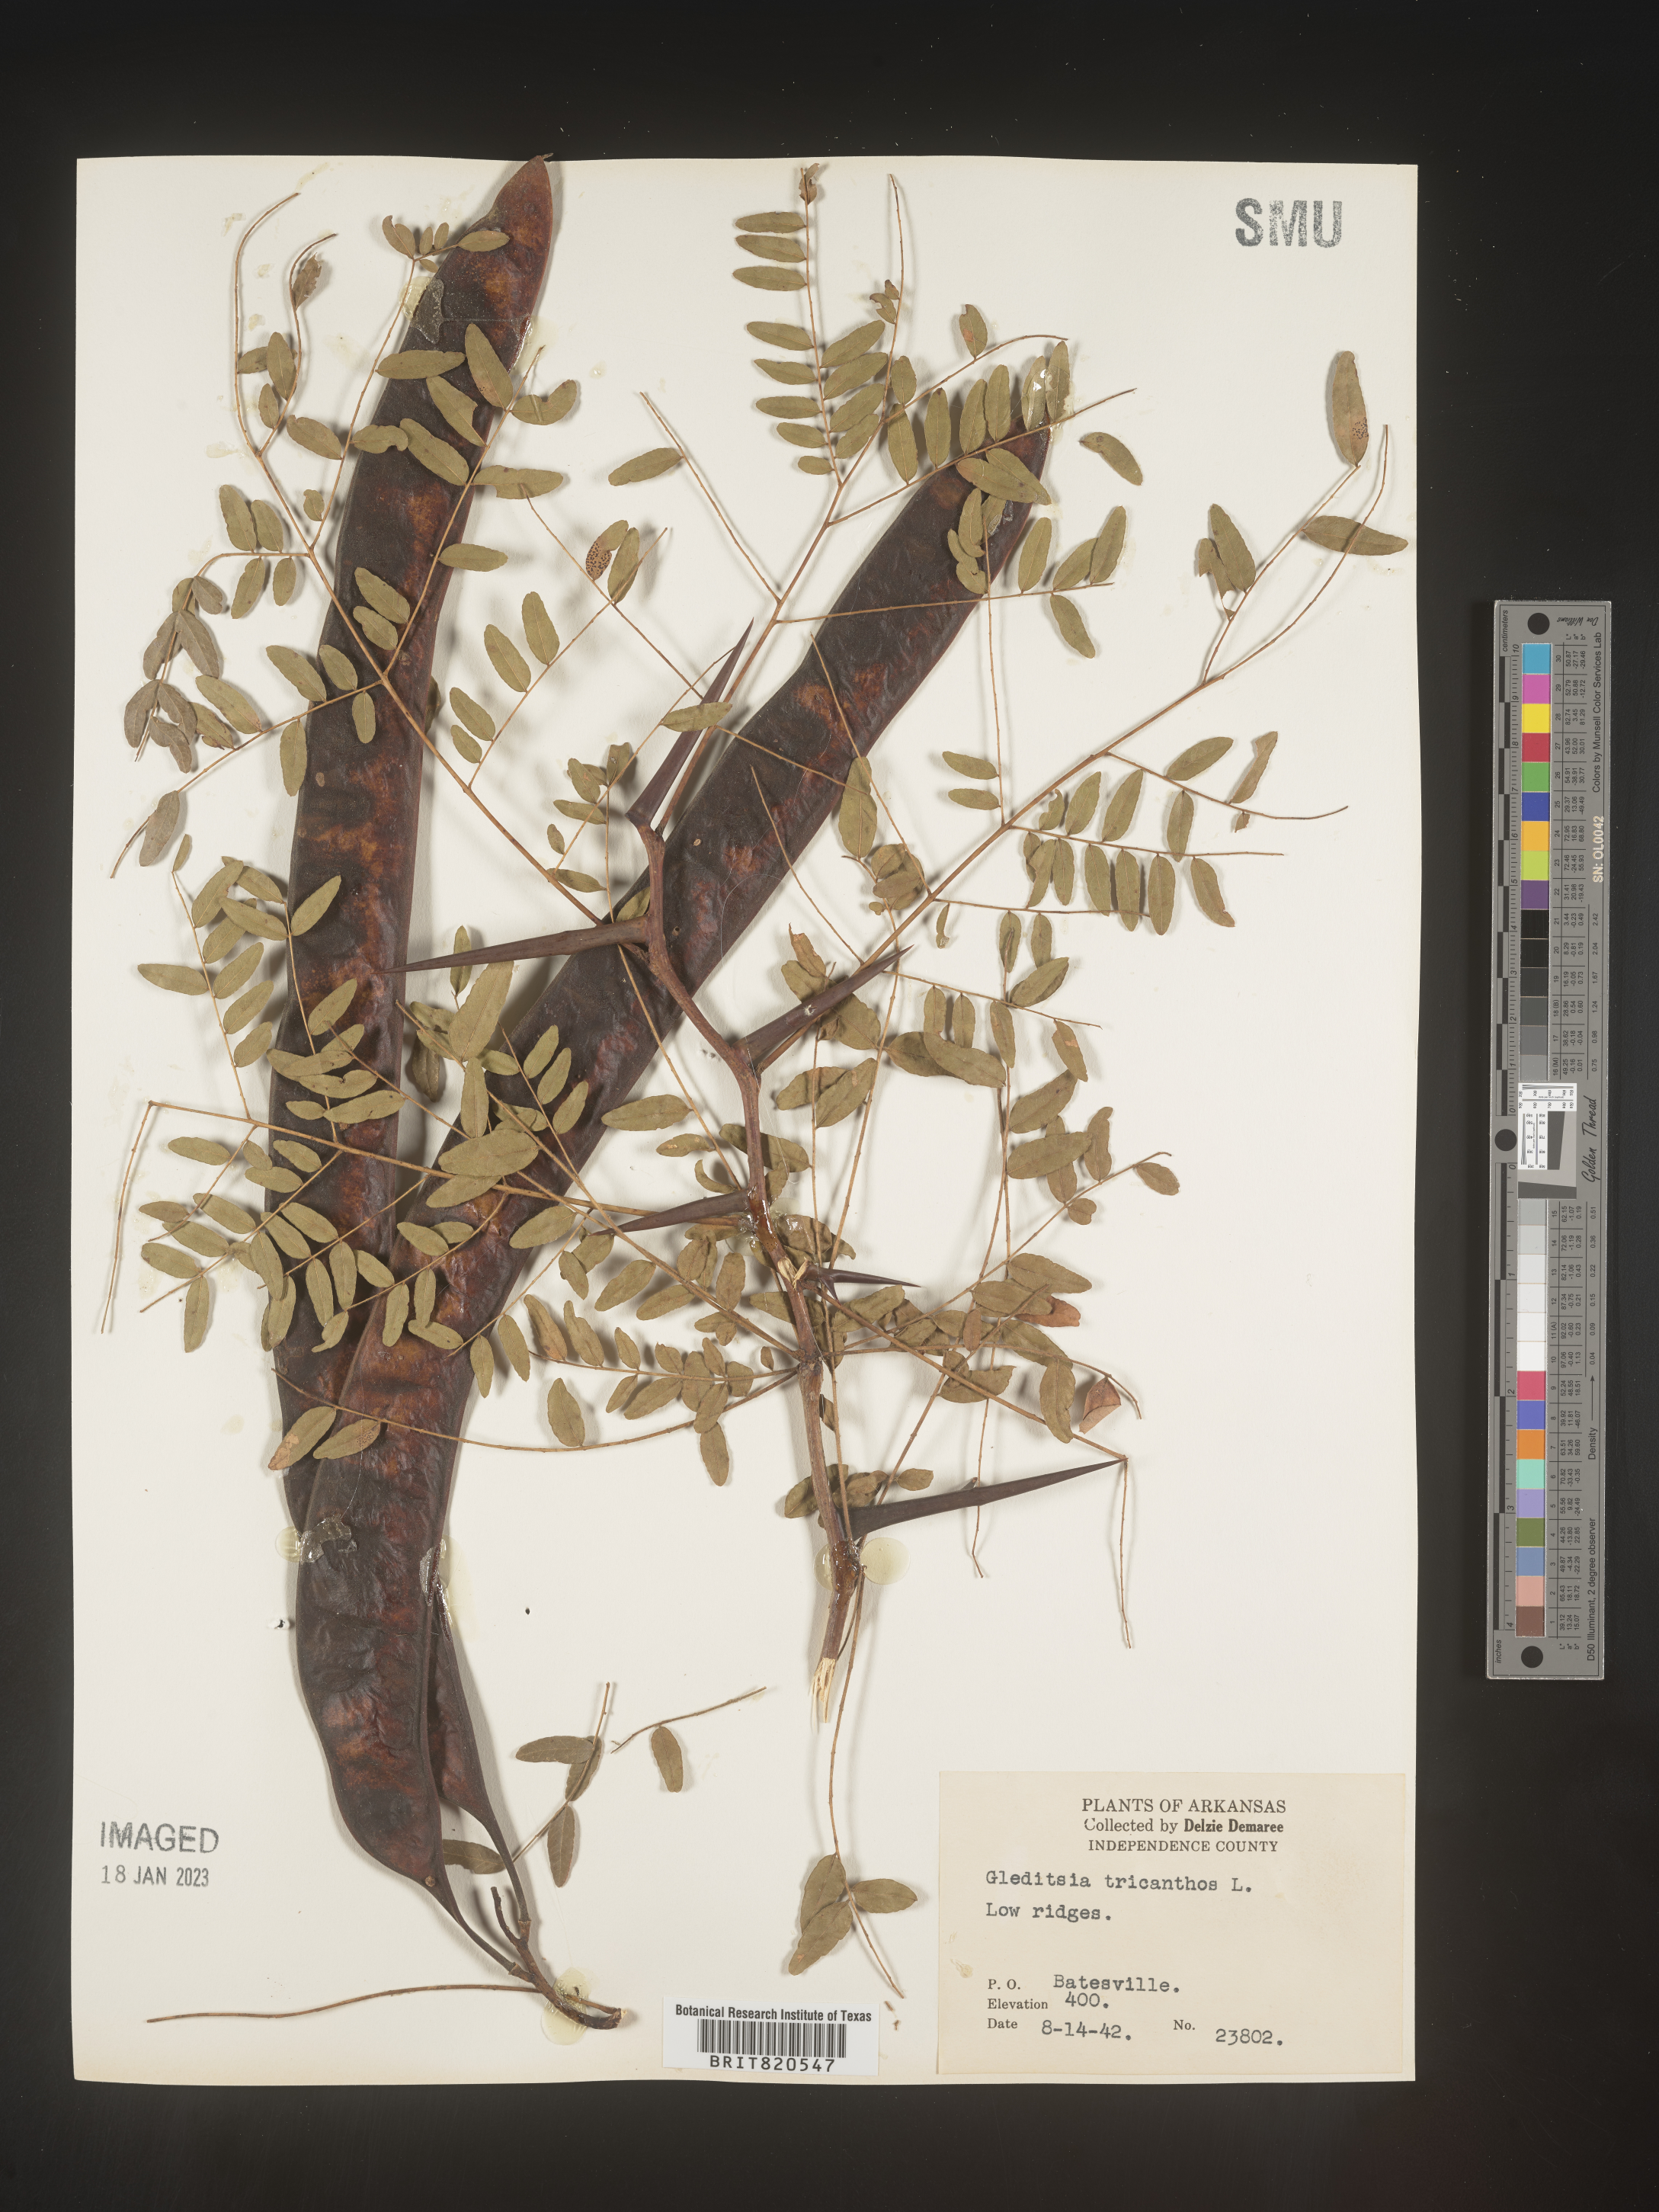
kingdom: Plantae
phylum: Tracheophyta
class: Magnoliopsida
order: Fabales
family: Fabaceae
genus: Gleditsia
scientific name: Gleditsia triacanthos
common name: Common honeylocust
